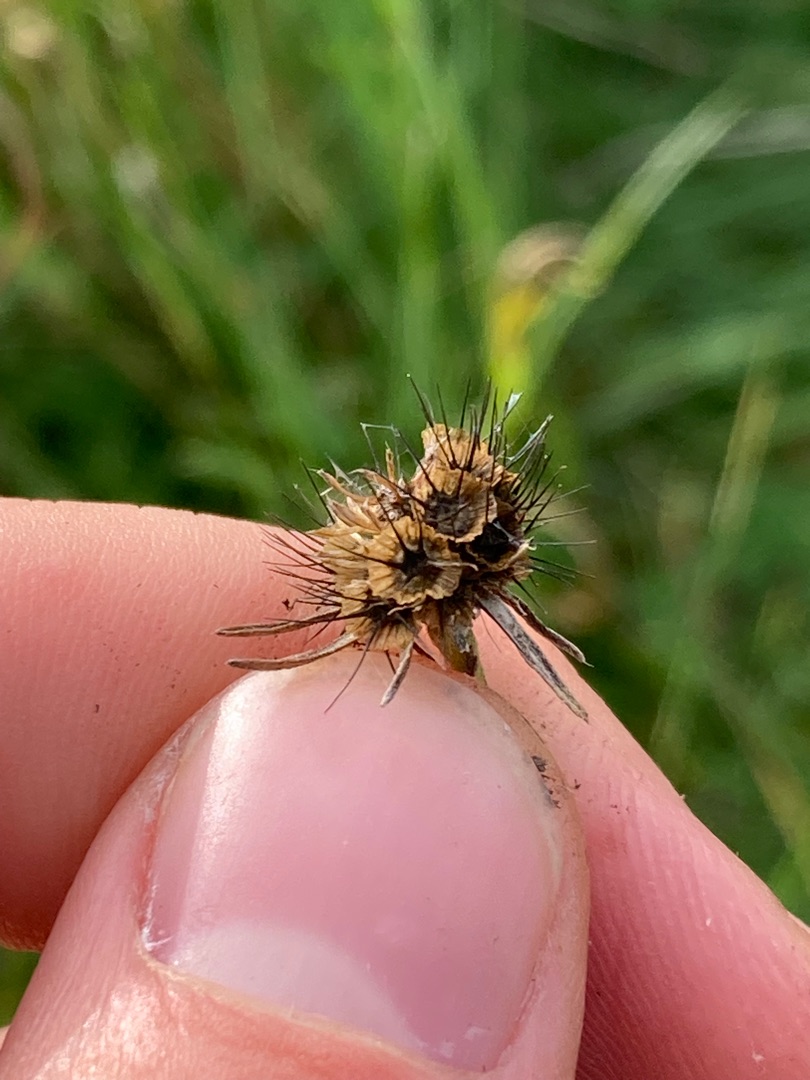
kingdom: Plantae
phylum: Tracheophyta
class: Magnoliopsida
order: Dipsacales
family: Caprifoliaceae
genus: Scabiosa
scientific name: Scabiosa columbaria
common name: Due-skabiose
